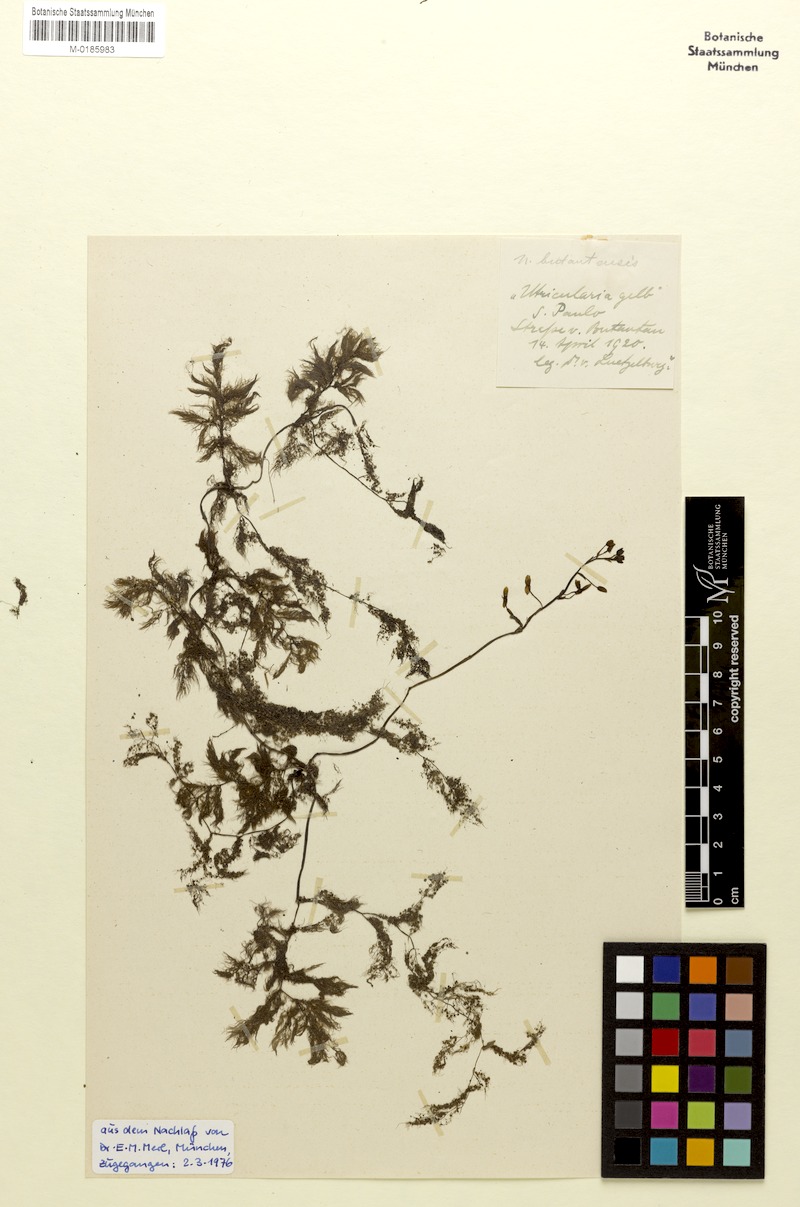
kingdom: Plantae
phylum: Tracheophyta
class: Magnoliopsida
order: Lamiales
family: Lentibulariaceae
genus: Utricularia
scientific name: Utricularia foliosa
